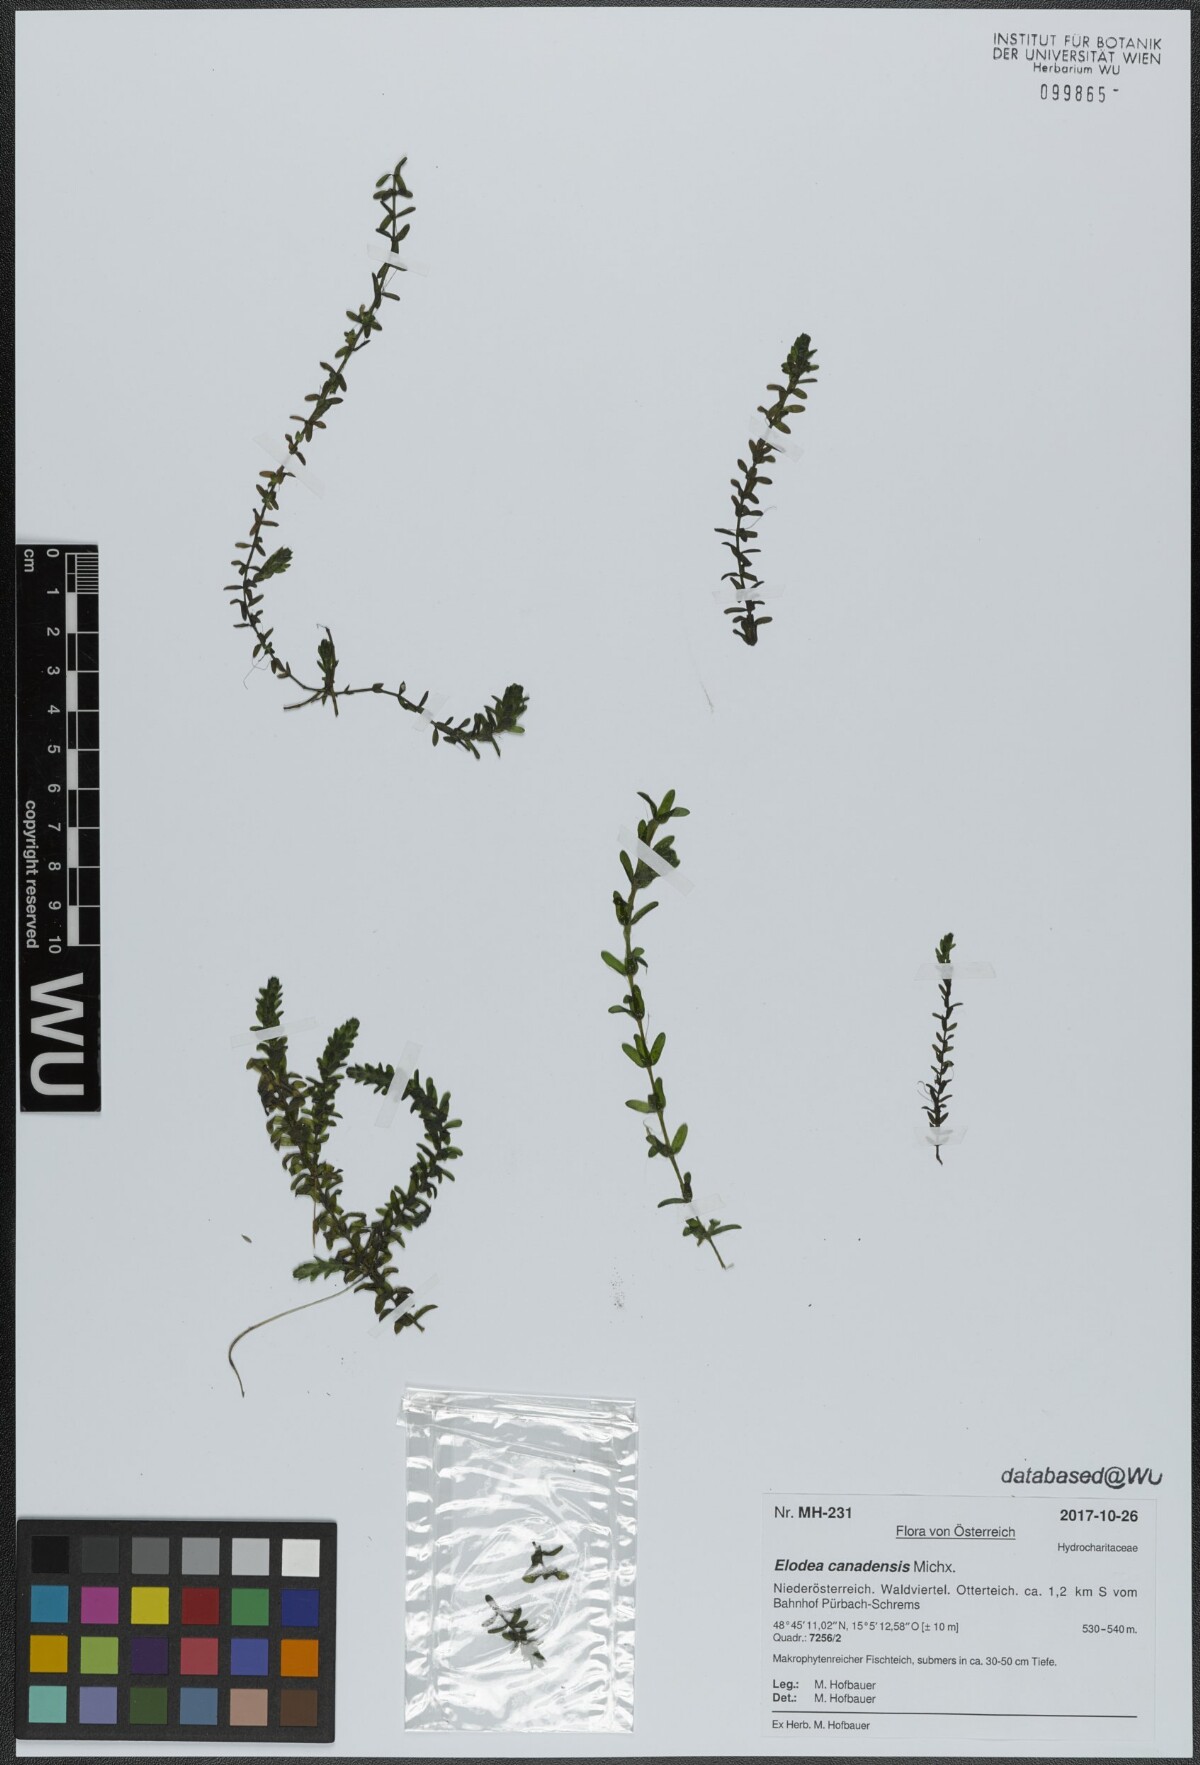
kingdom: Plantae
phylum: Tracheophyta
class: Liliopsida
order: Alismatales
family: Hydrocharitaceae
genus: Elodea
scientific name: Elodea canadensis
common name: Canadian waterweed
